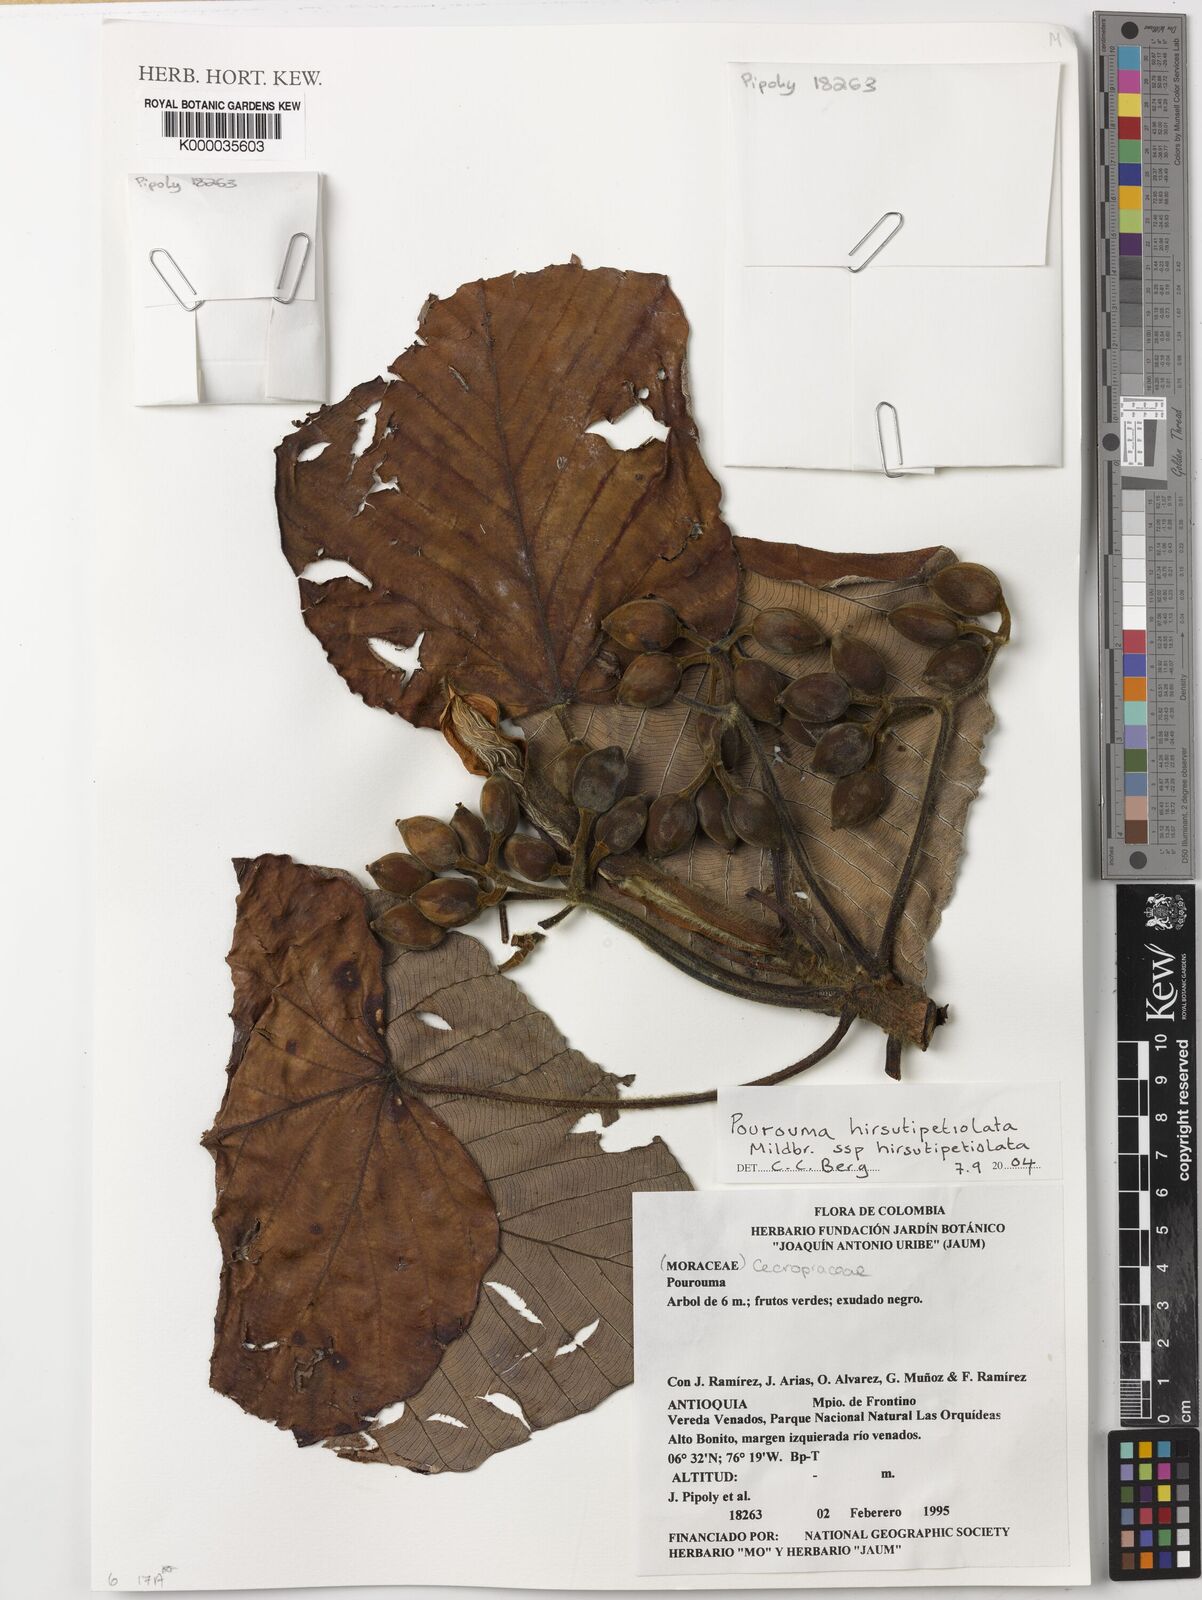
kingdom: Plantae
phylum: Tracheophyta
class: Magnoliopsida
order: Rosales
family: Urticaceae
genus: Pourouma
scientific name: Pourouma hirsutipetiolata
